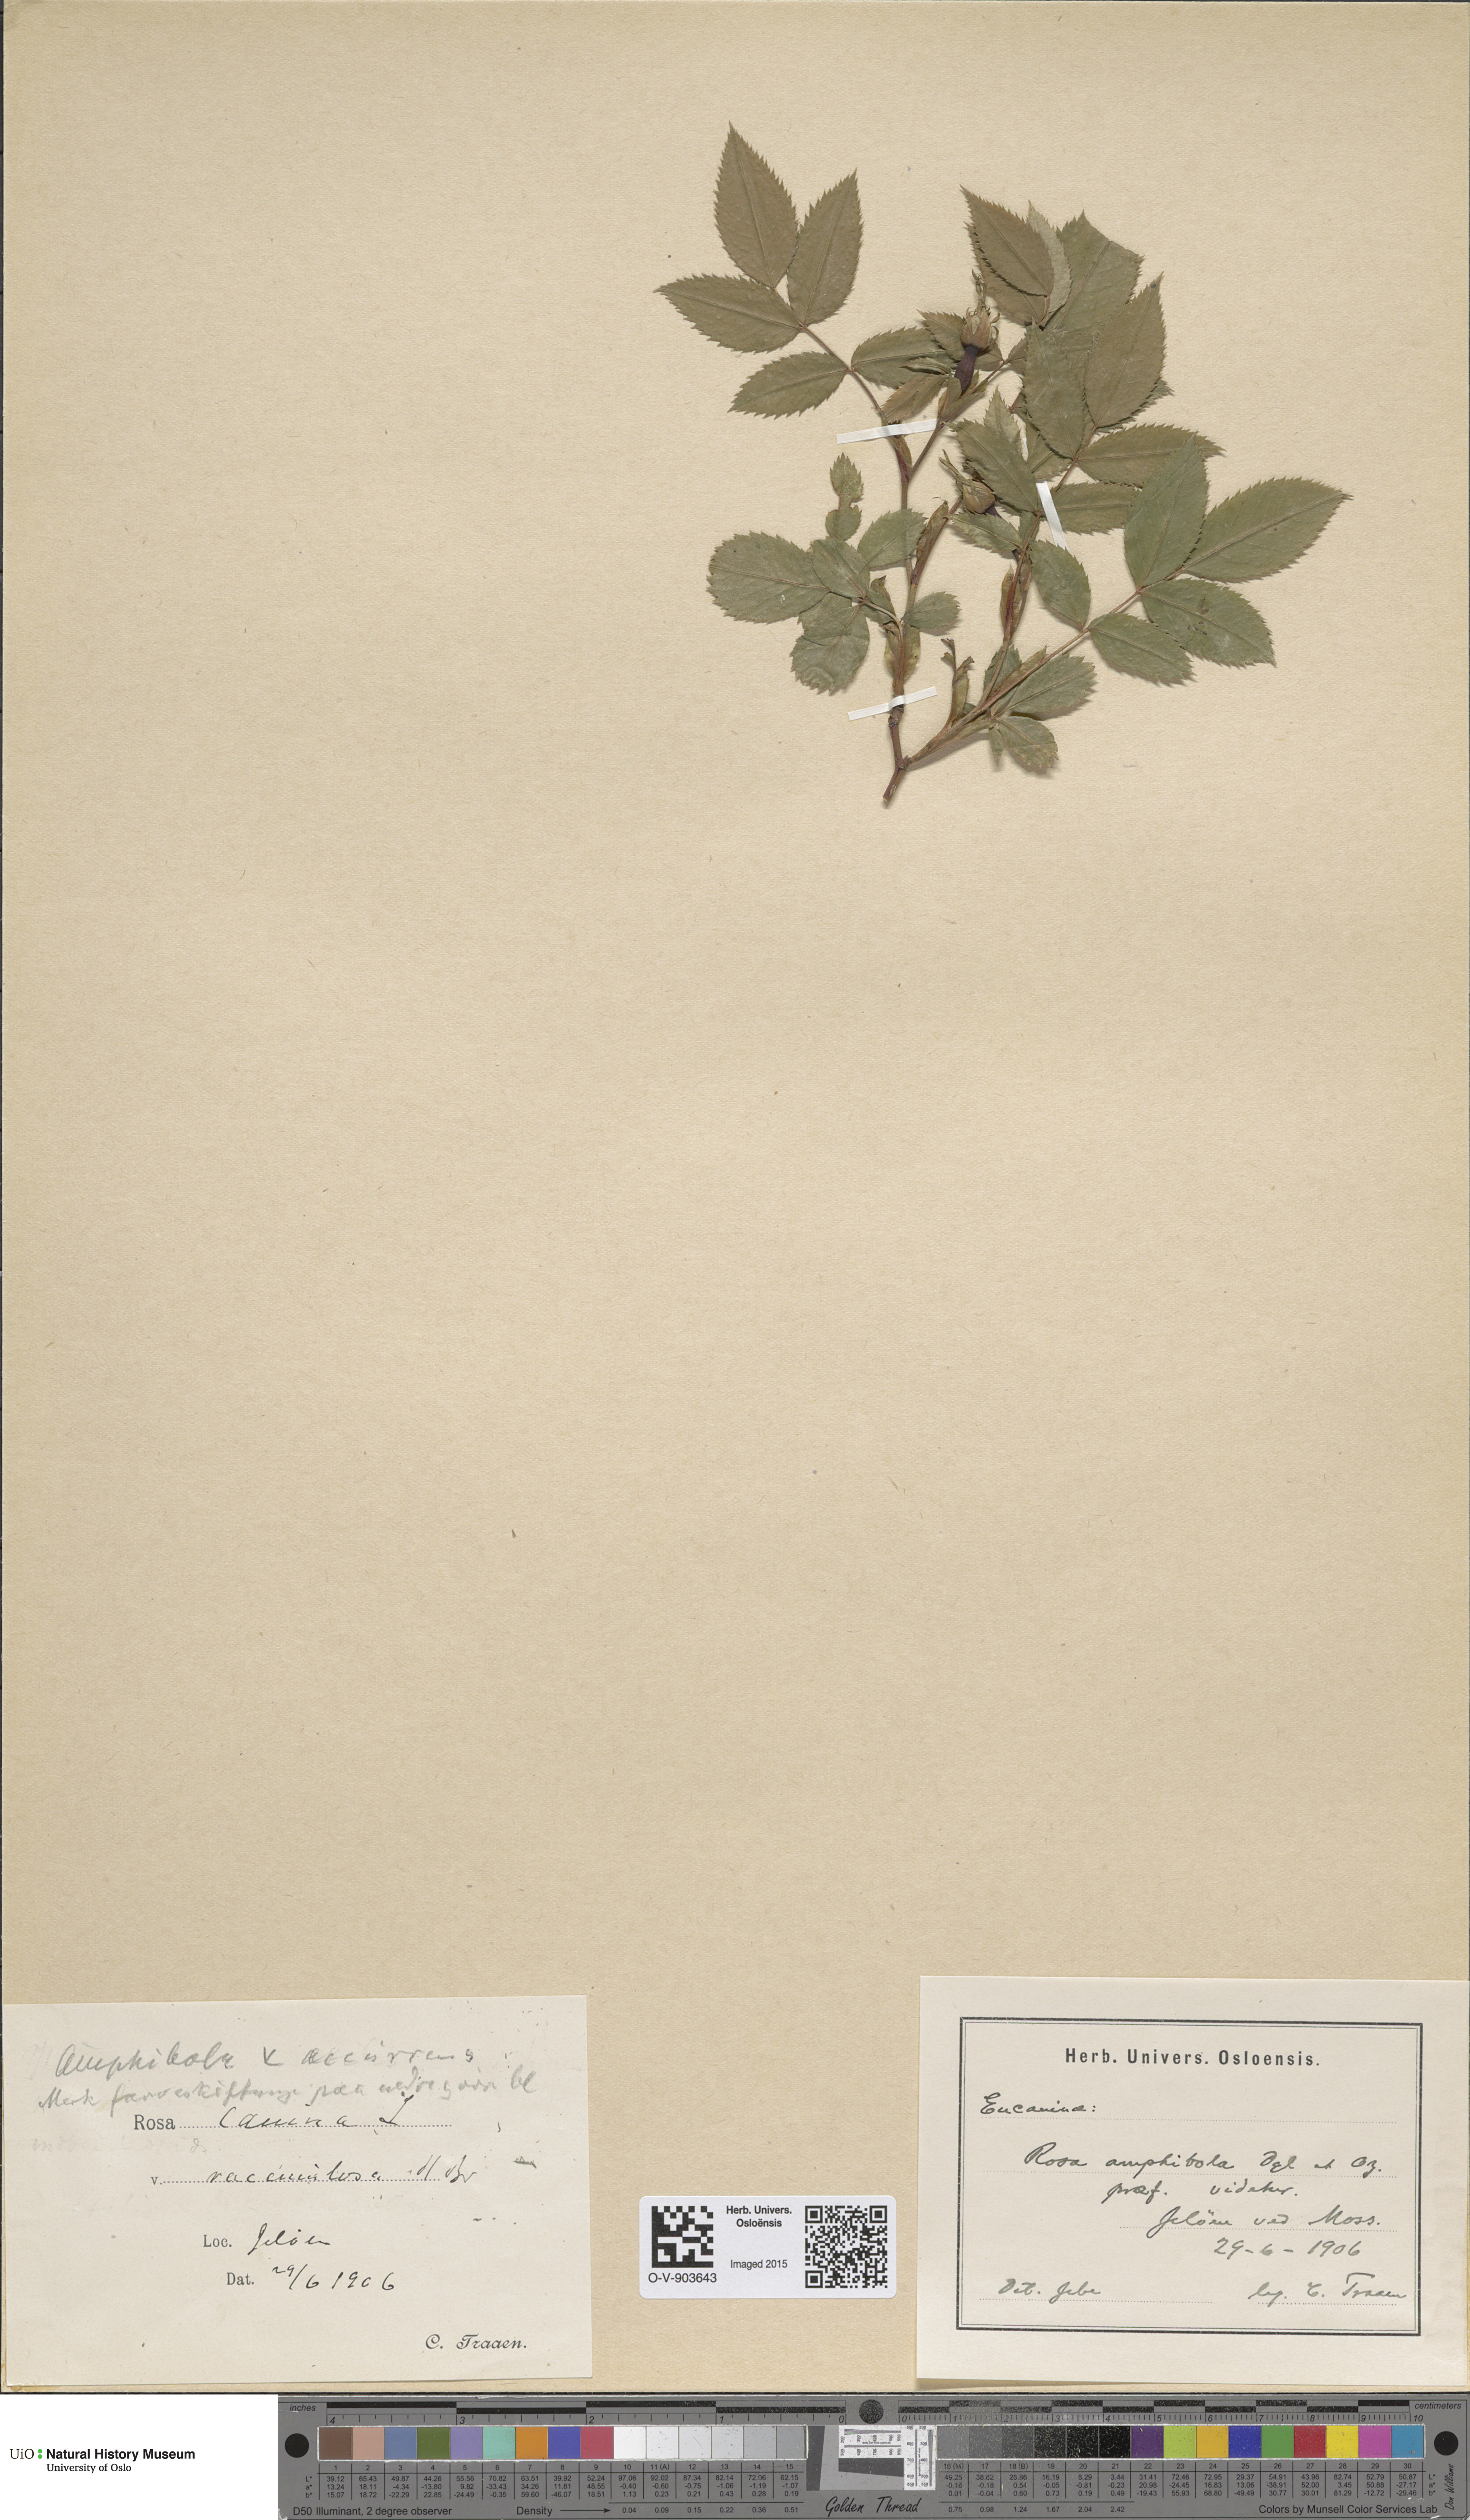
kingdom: Plantae
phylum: Tracheophyta
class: Magnoliopsida
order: Rosales
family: Rosaceae
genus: Rosa
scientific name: Rosa canina
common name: Dog rose
